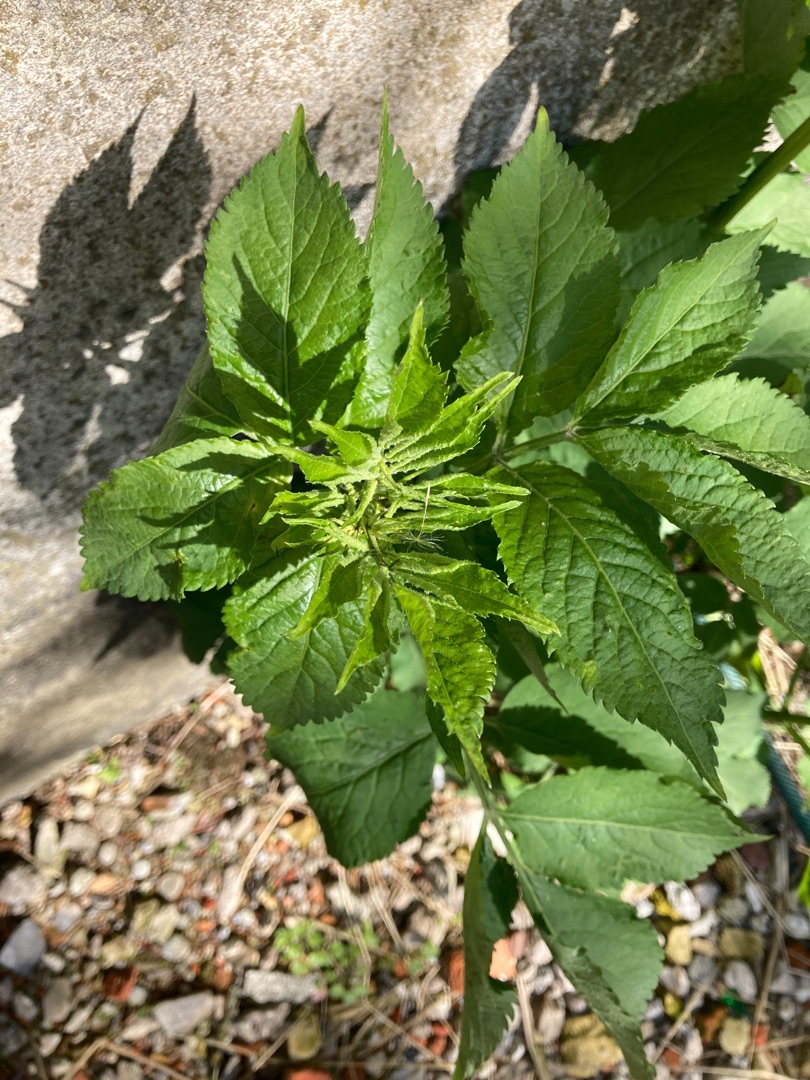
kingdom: Plantae
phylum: Tracheophyta
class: Magnoliopsida
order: Dipsacales
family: Viburnaceae
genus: Sambucus
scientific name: Sambucus
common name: Hyldeslægten
